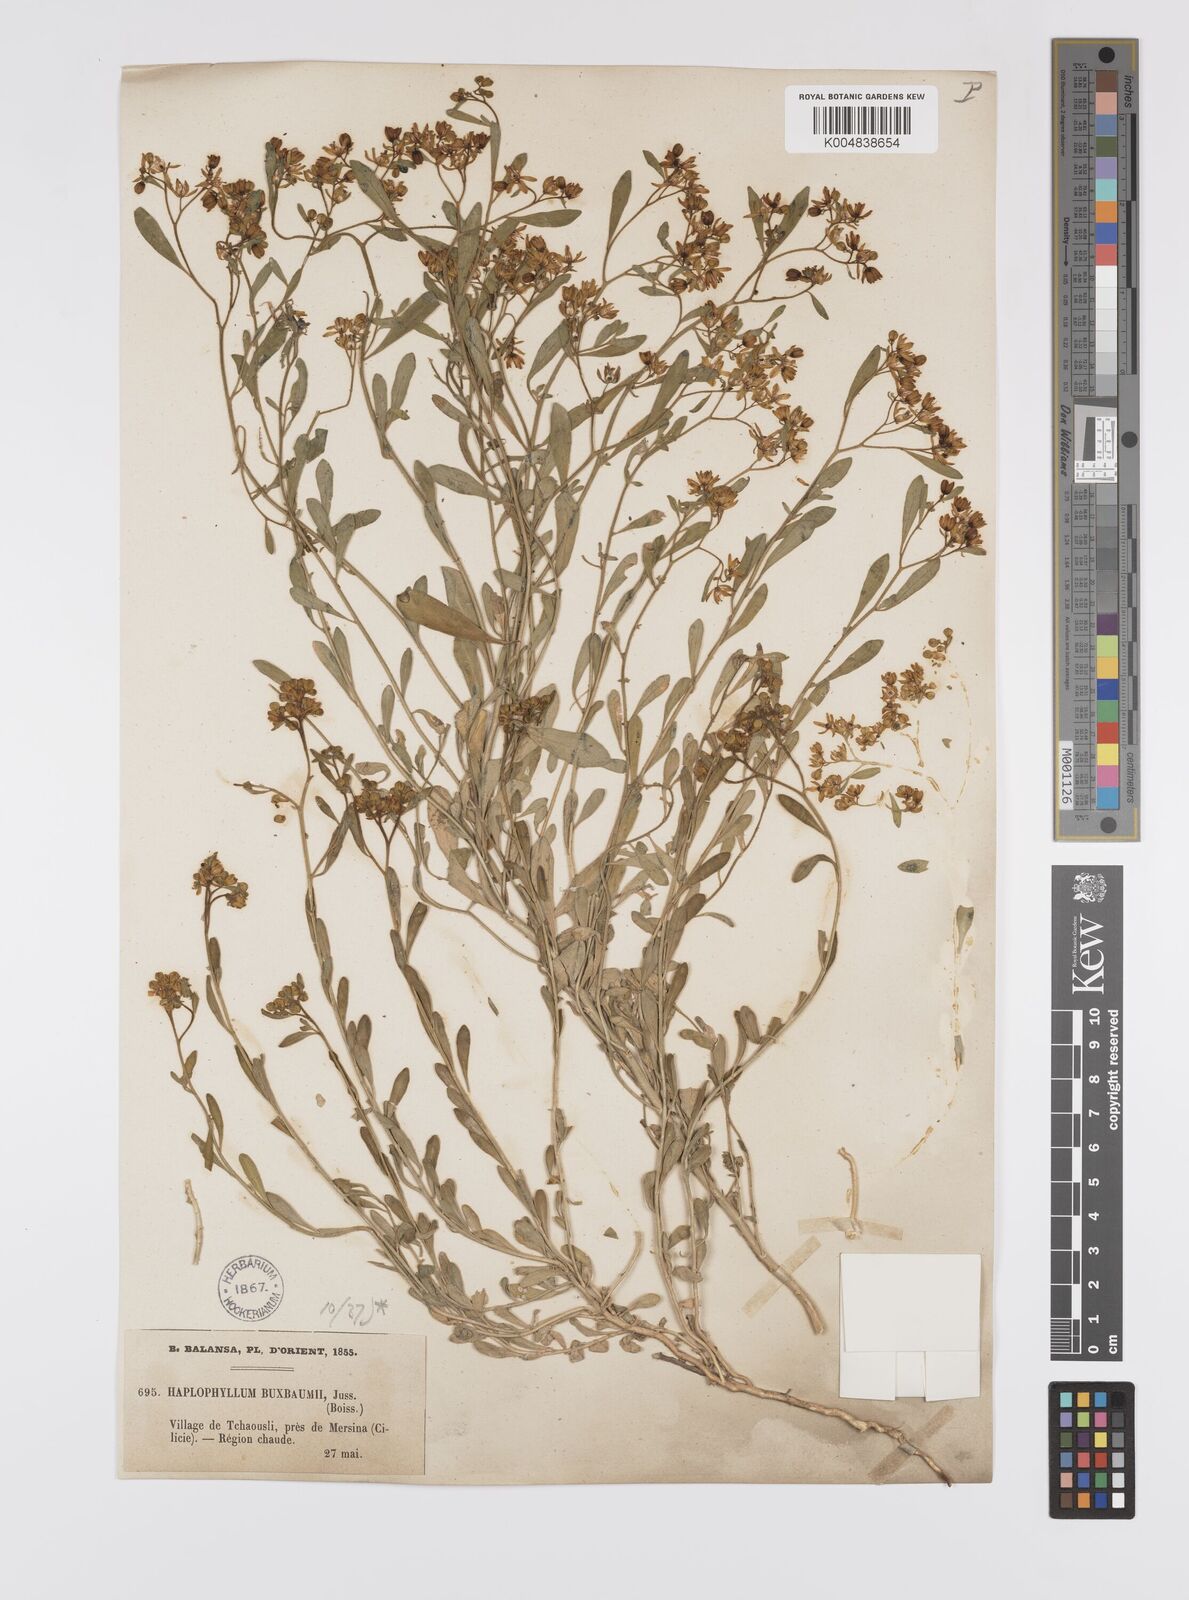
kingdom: Plantae
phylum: Tracheophyta
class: Magnoliopsida
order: Sapindales
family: Rutaceae
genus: Haplophyllum
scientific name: Haplophyllum
